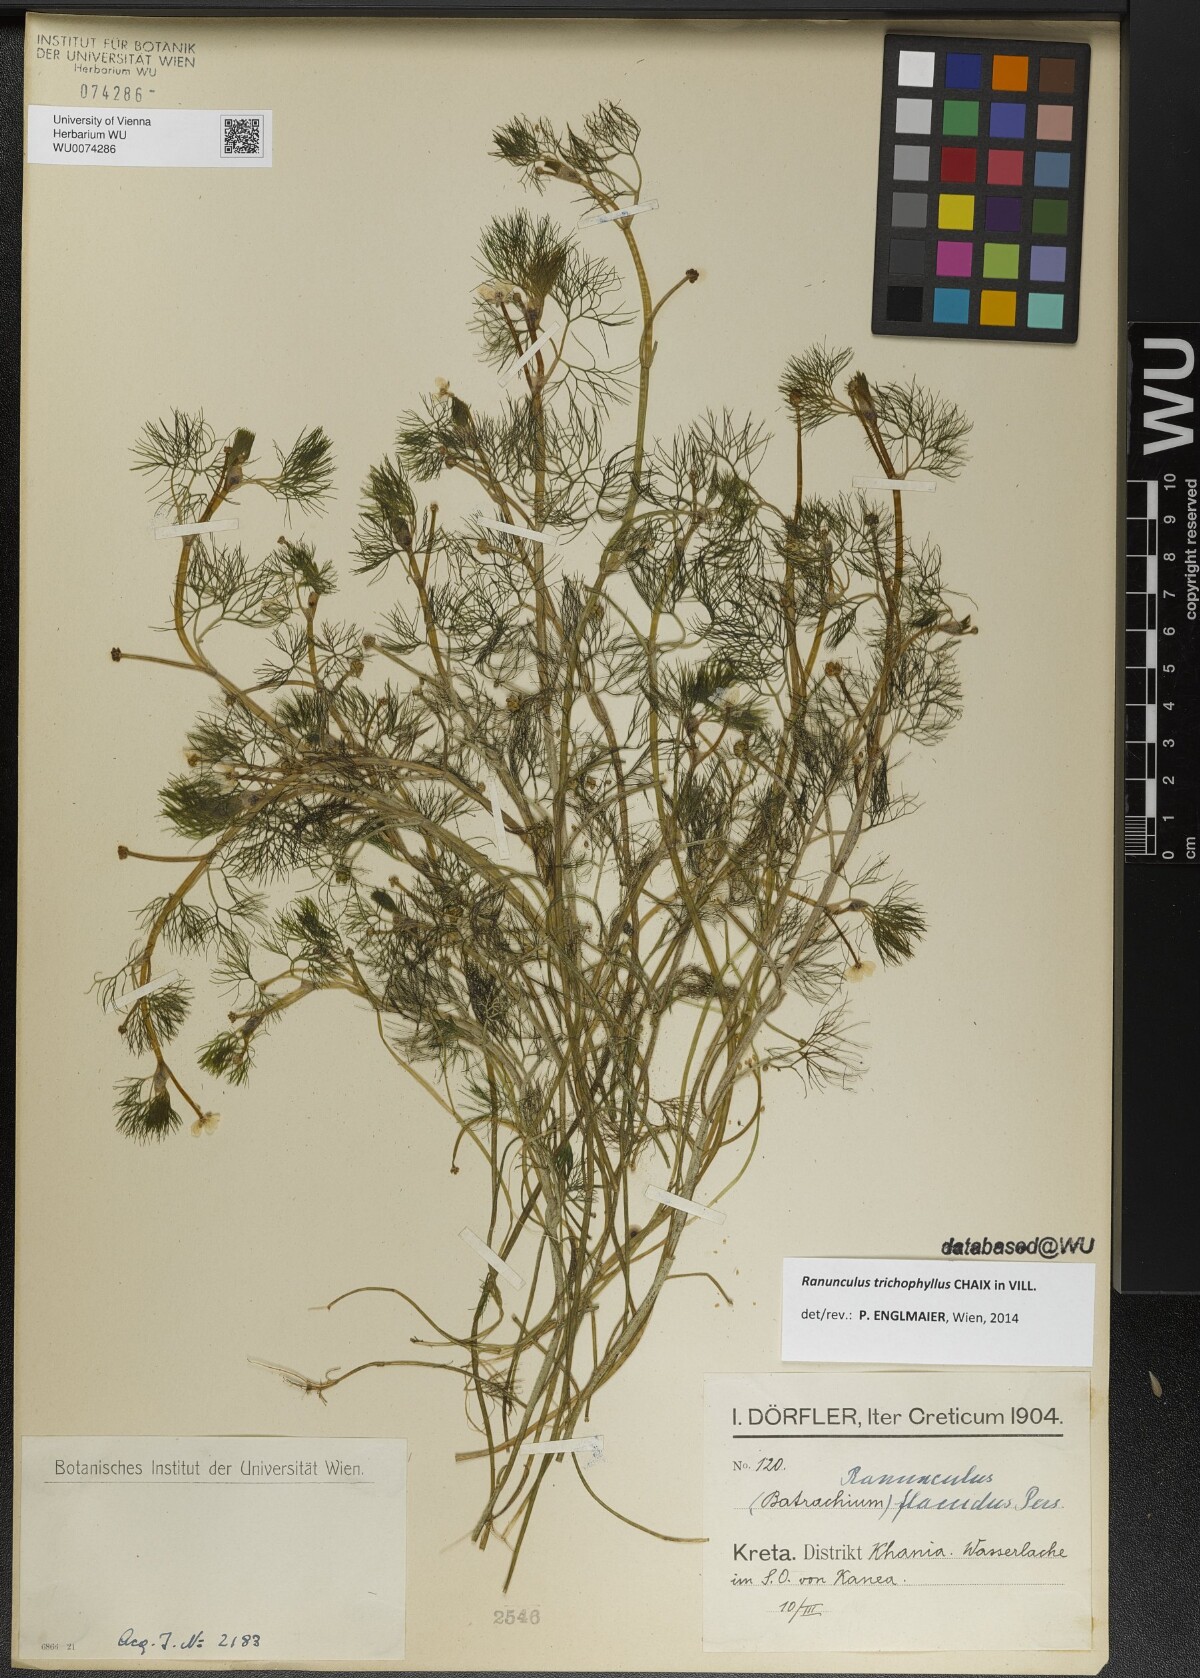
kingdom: Plantae
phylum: Tracheophyta
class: Magnoliopsida
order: Ranunculales
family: Ranunculaceae
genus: Ranunculus
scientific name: Ranunculus trichophyllus
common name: Thread-leaved water-crowfoot
